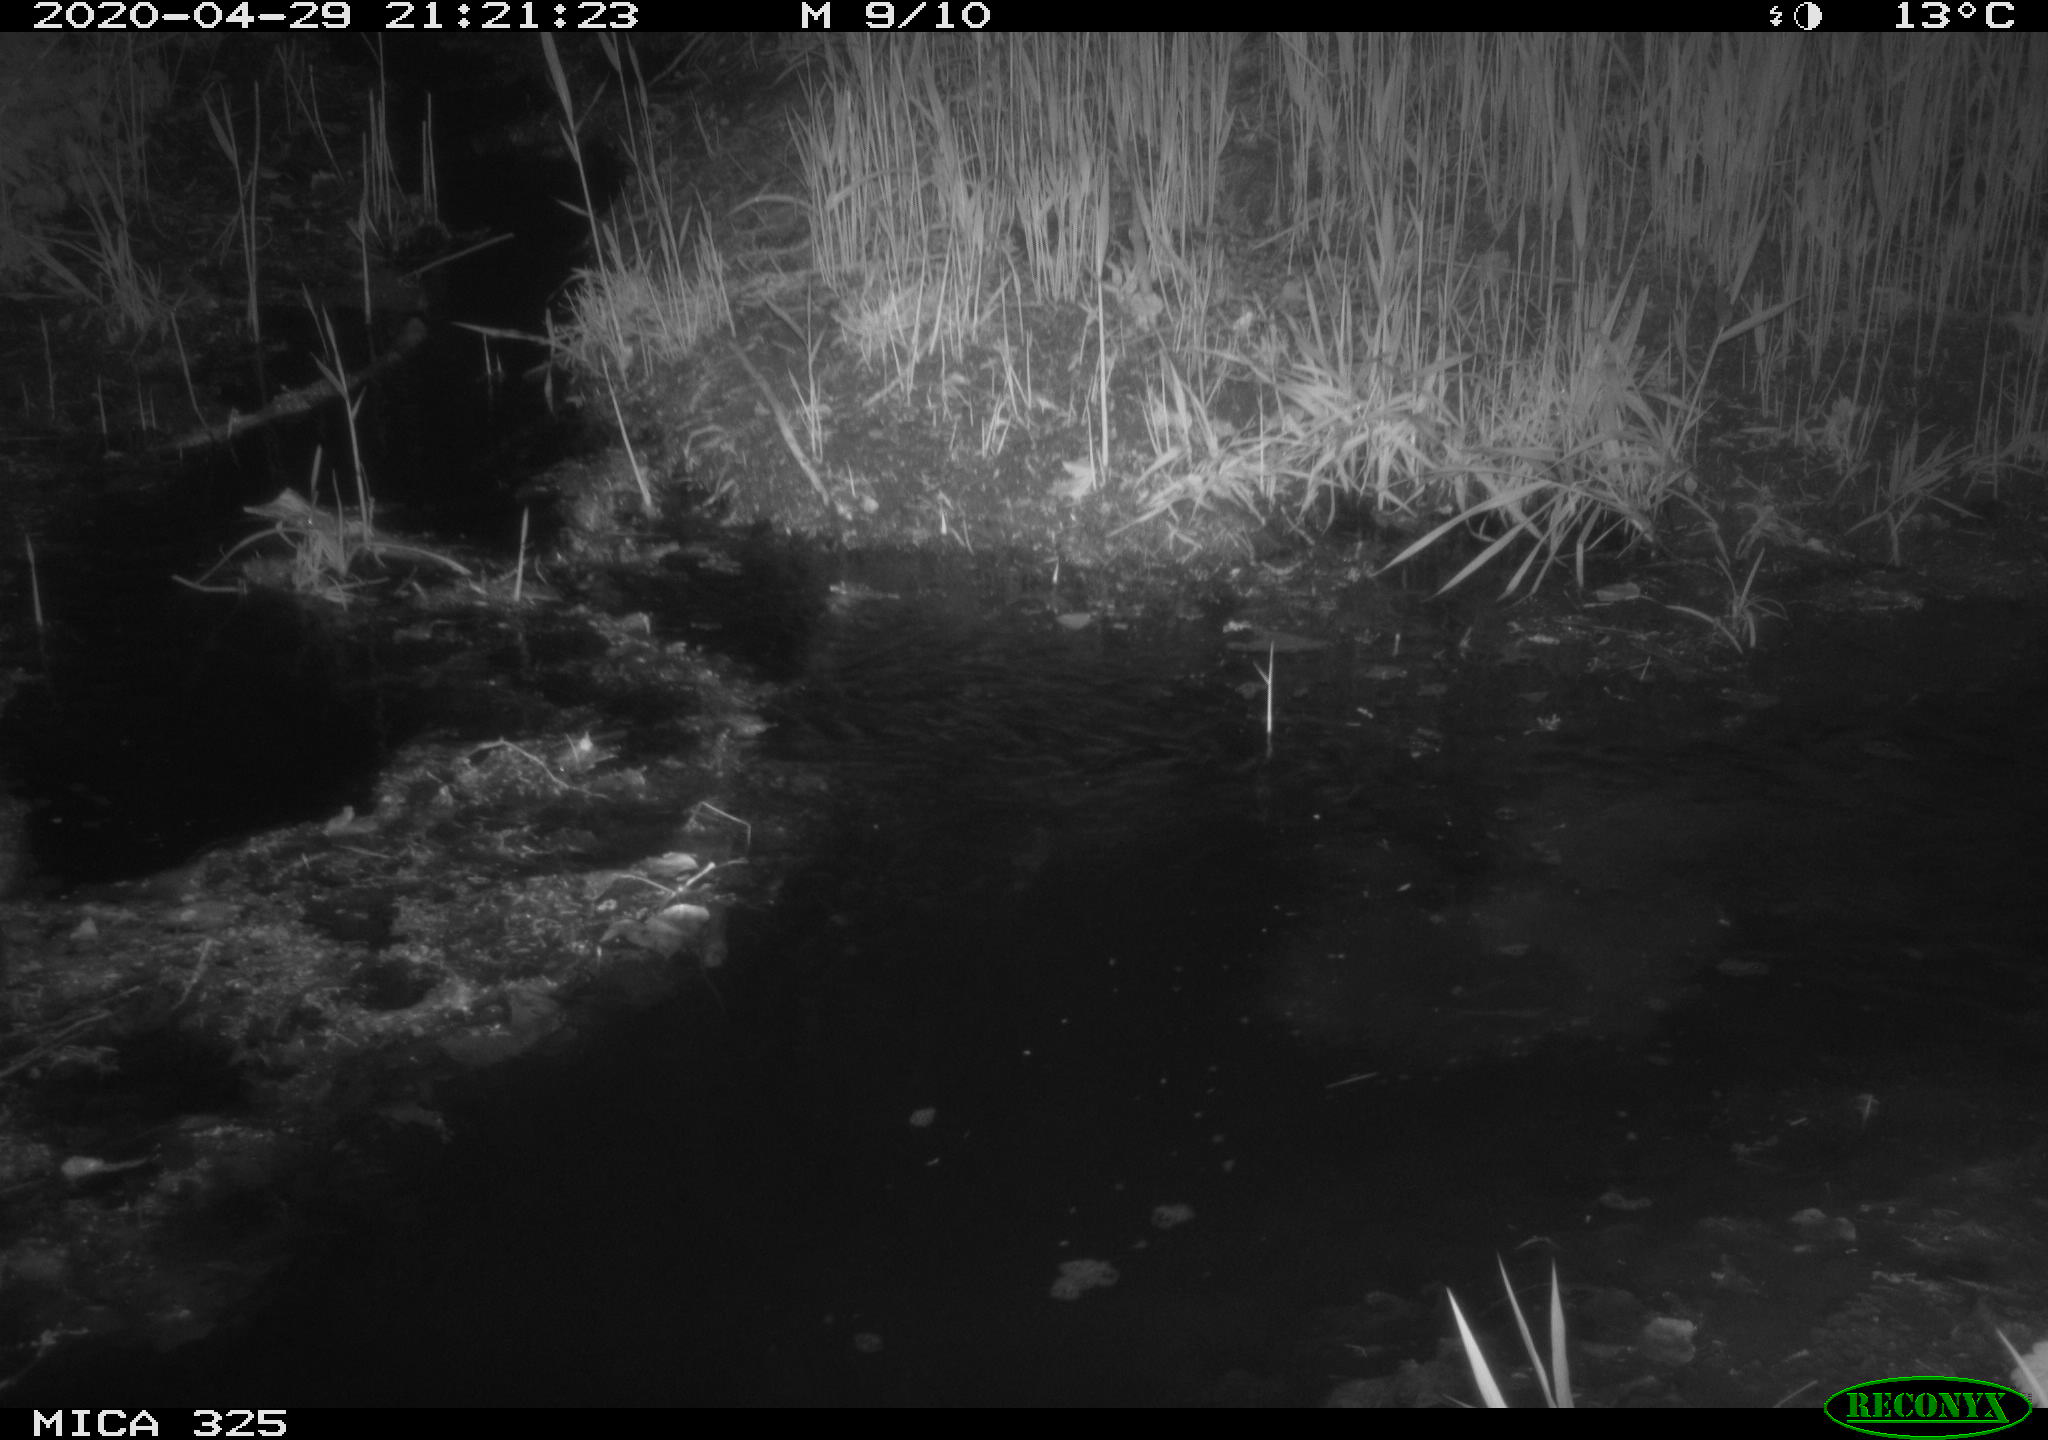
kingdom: Animalia
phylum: Chordata
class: Mammalia
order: Rodentia
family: Myocastoridae
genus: Myocastor
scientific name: Myocastor coypus
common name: Coypu
